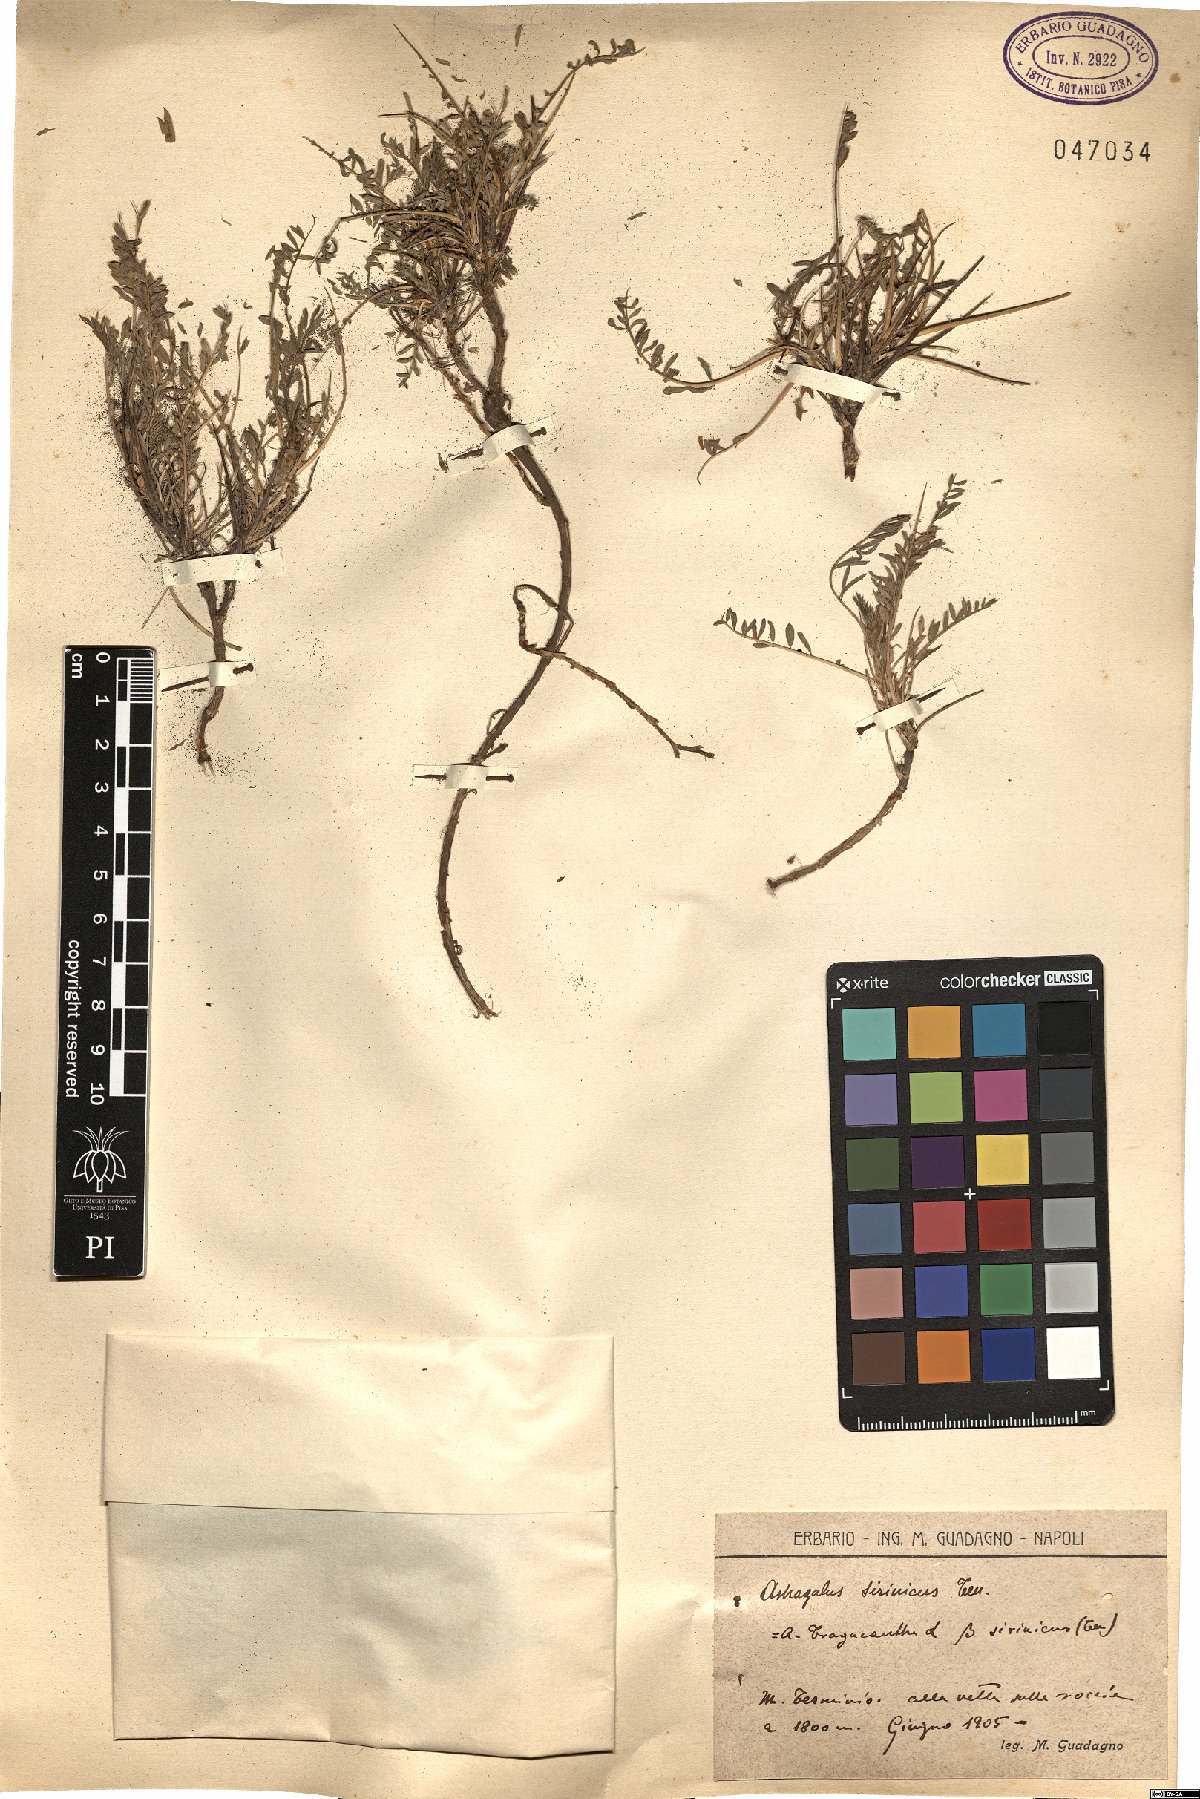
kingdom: Plantae
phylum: Tracheophyta
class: Magnoliopsida
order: Fabales
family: Fabaceae
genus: Astragalus
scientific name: Astragalus sirinicus
